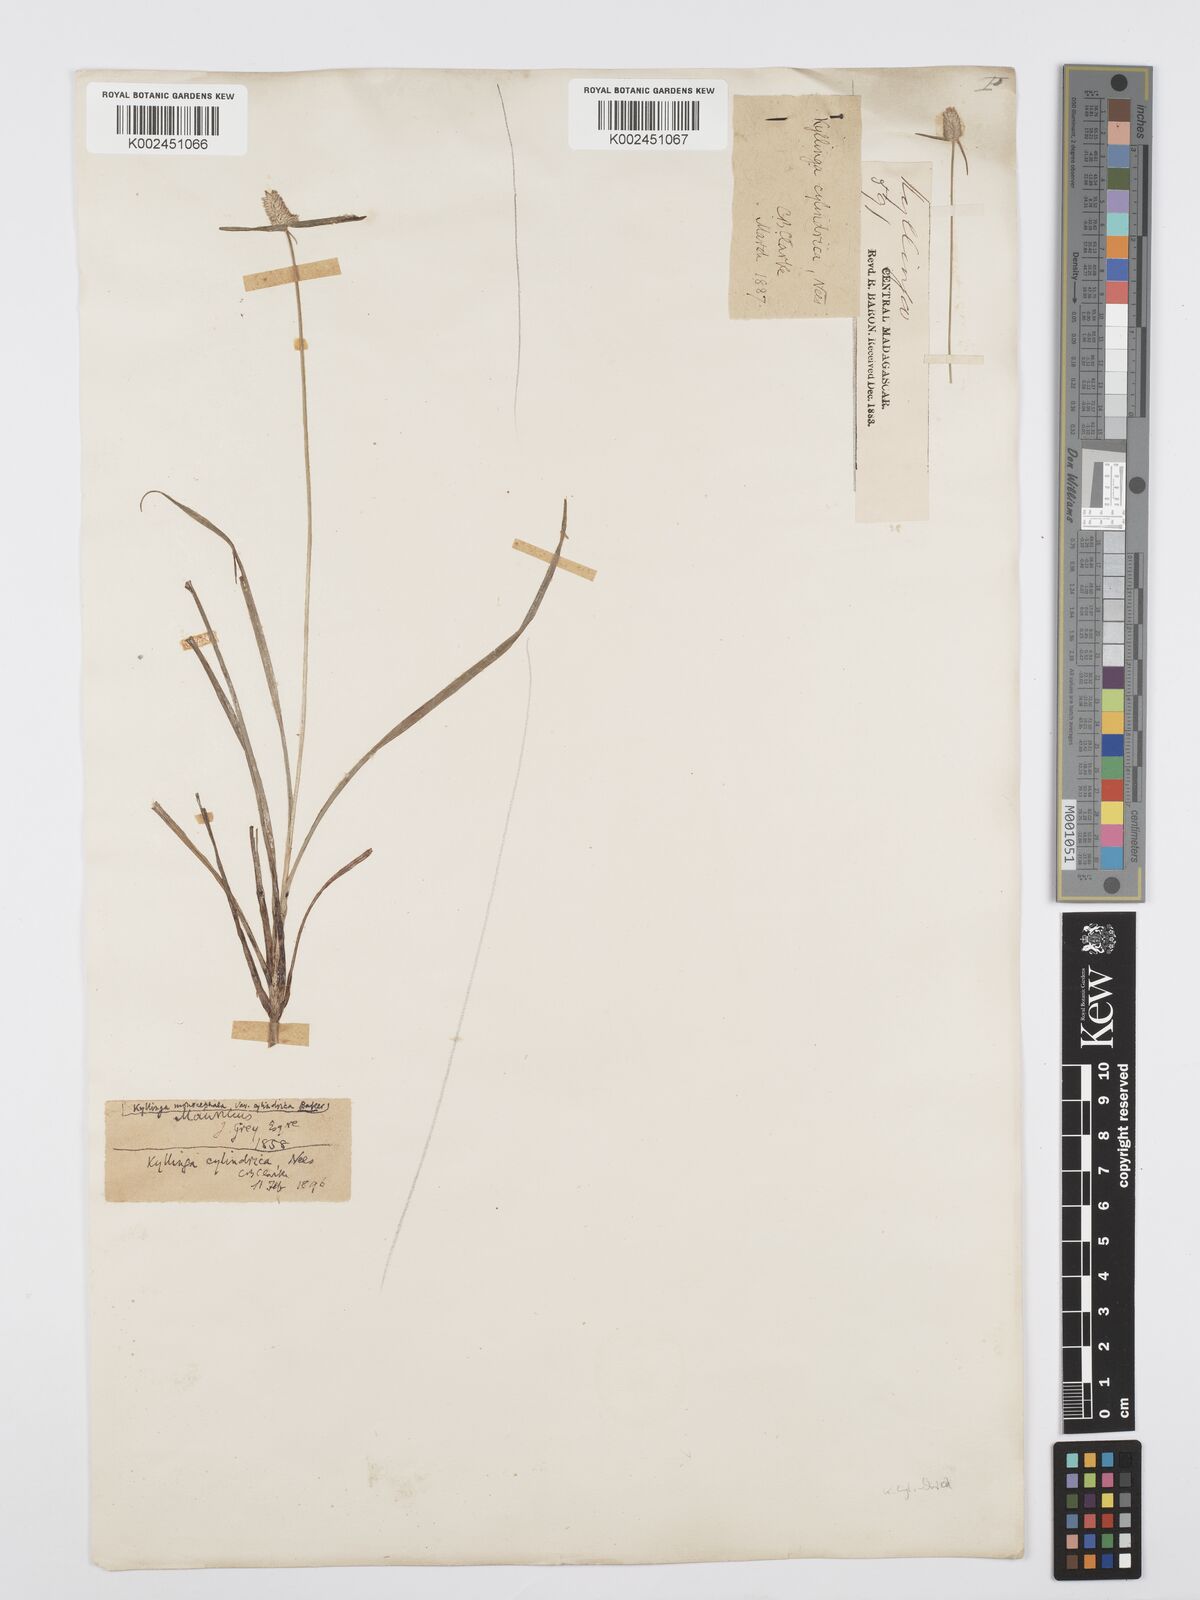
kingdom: Plantae
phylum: Tracheophyta
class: Liliopsida
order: Poales
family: Cyperaceae
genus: Cyperus
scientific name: Cyperus pumilus
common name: Low flatsedge
